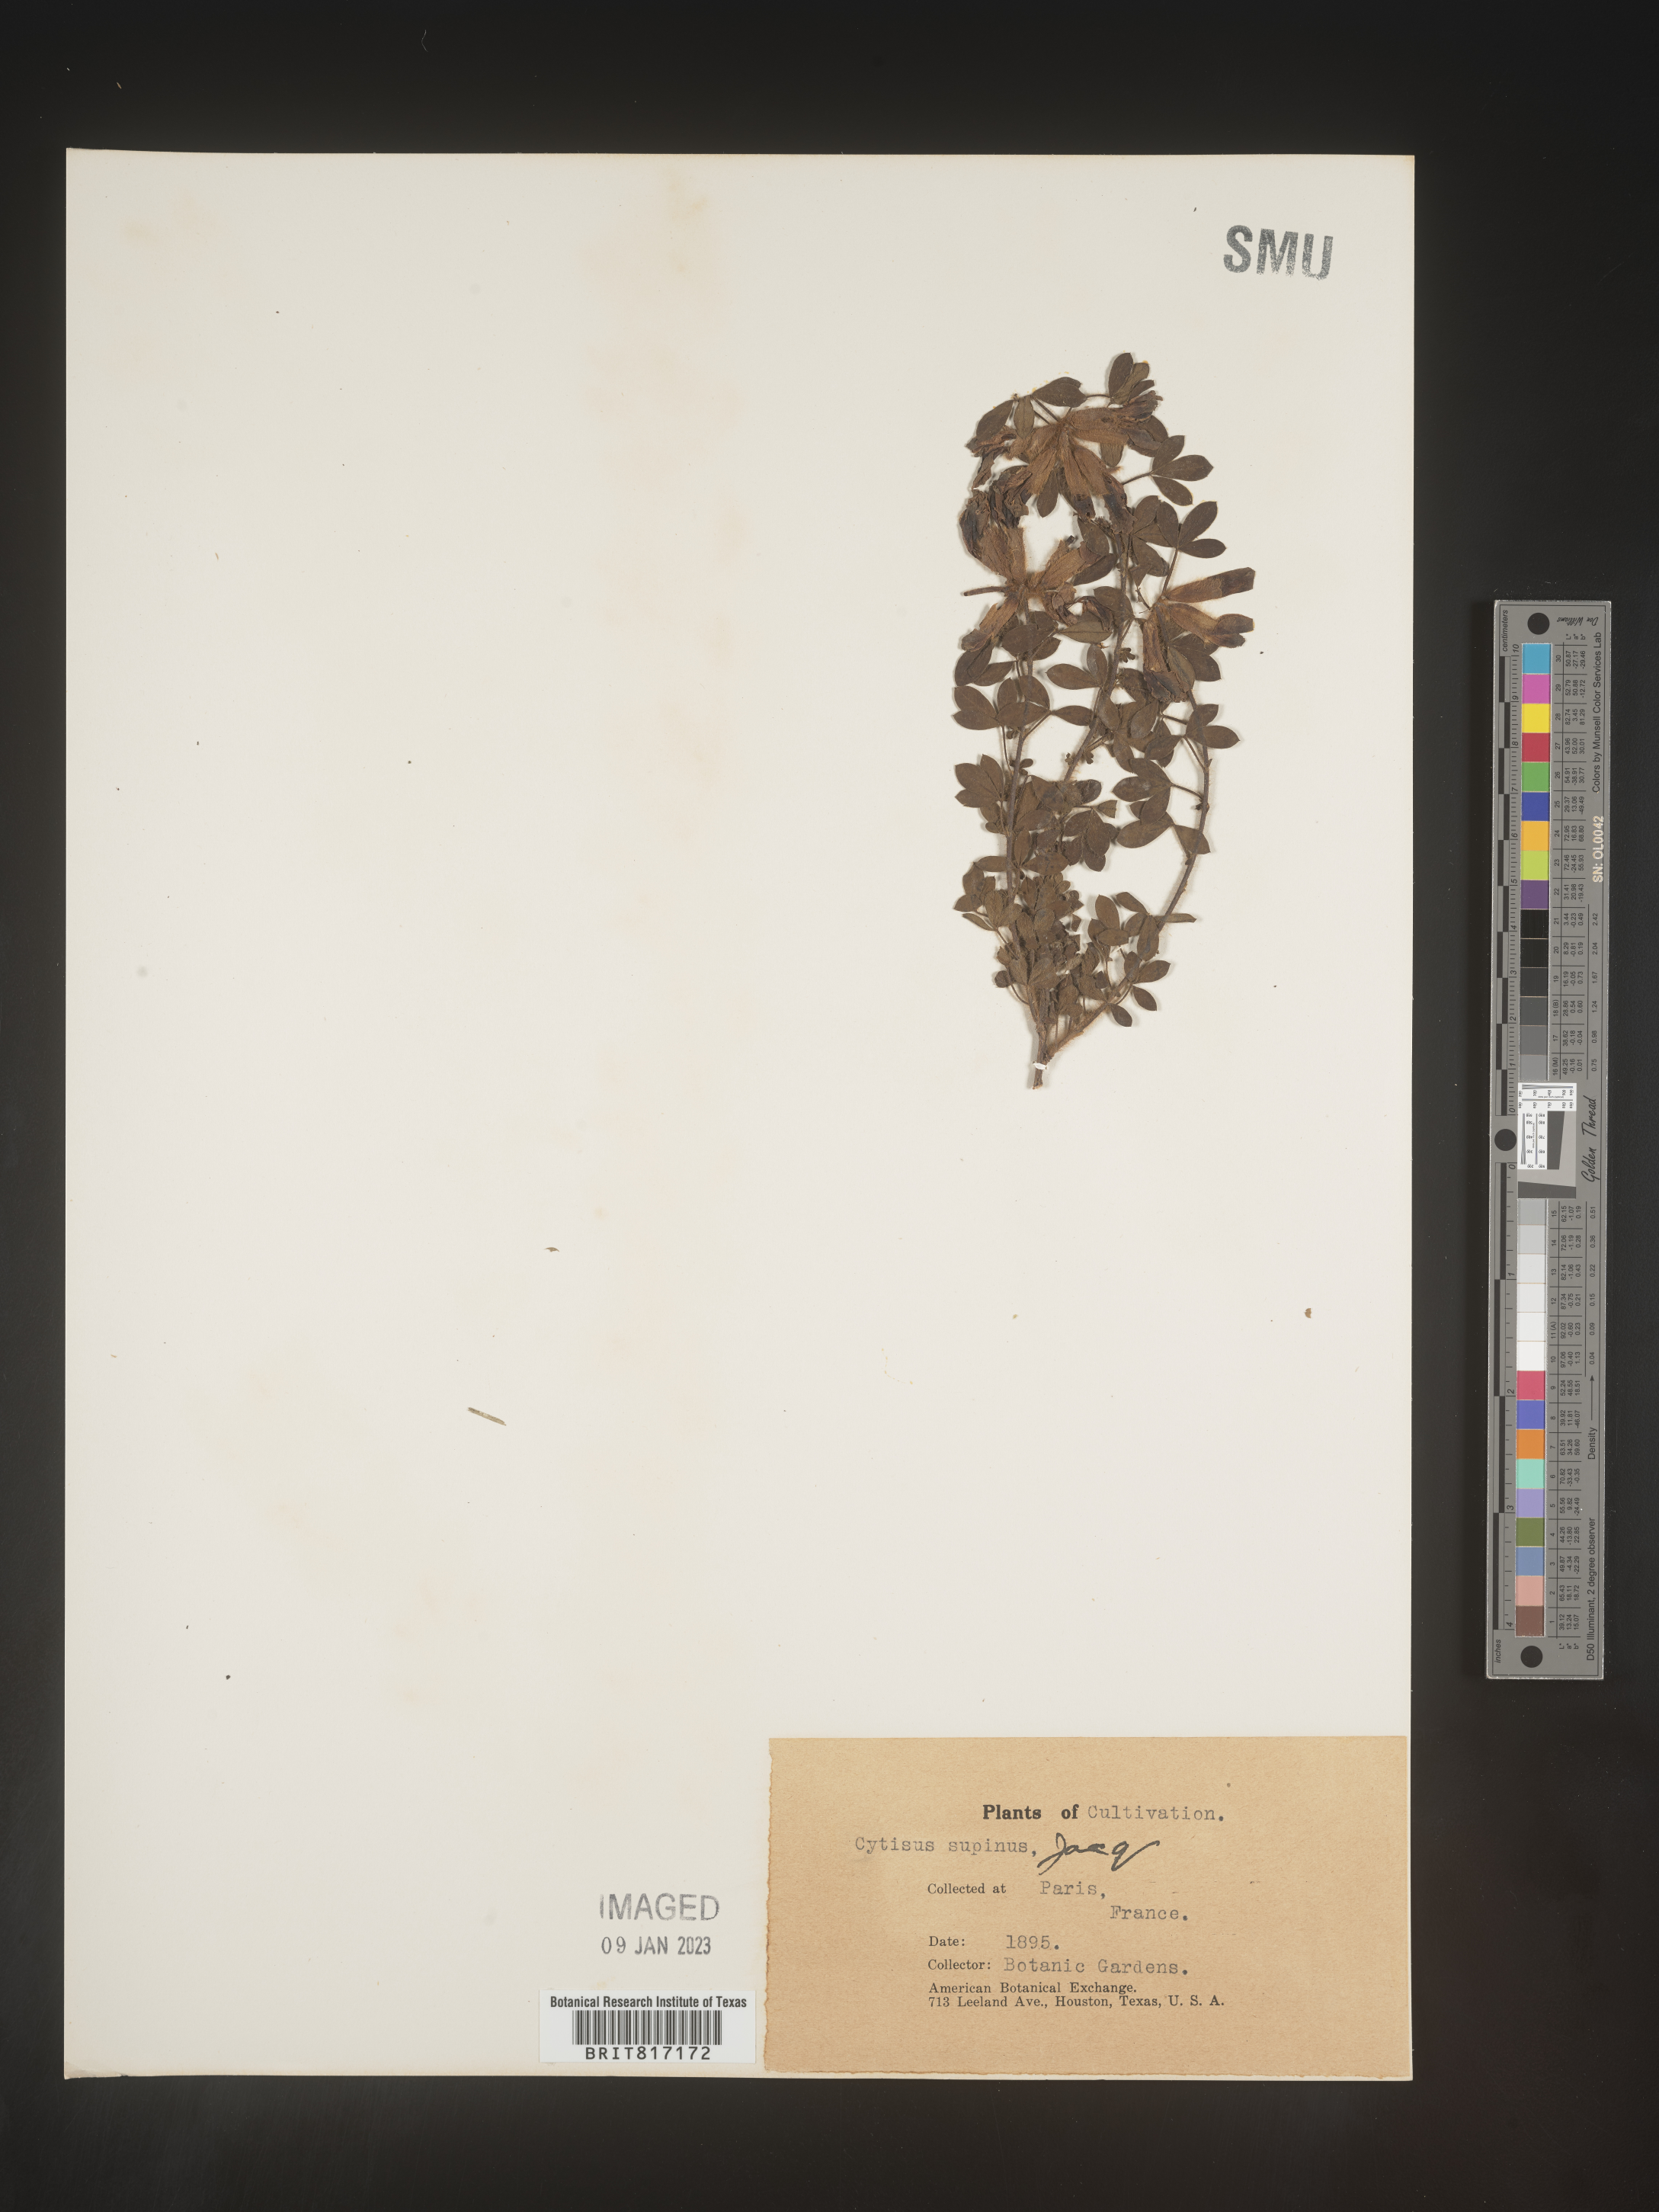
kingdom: Plantae
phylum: Tracheophyta
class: Magnoliopsida
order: Fabales
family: Fabaceae
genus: Cytisus
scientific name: Cytisus
